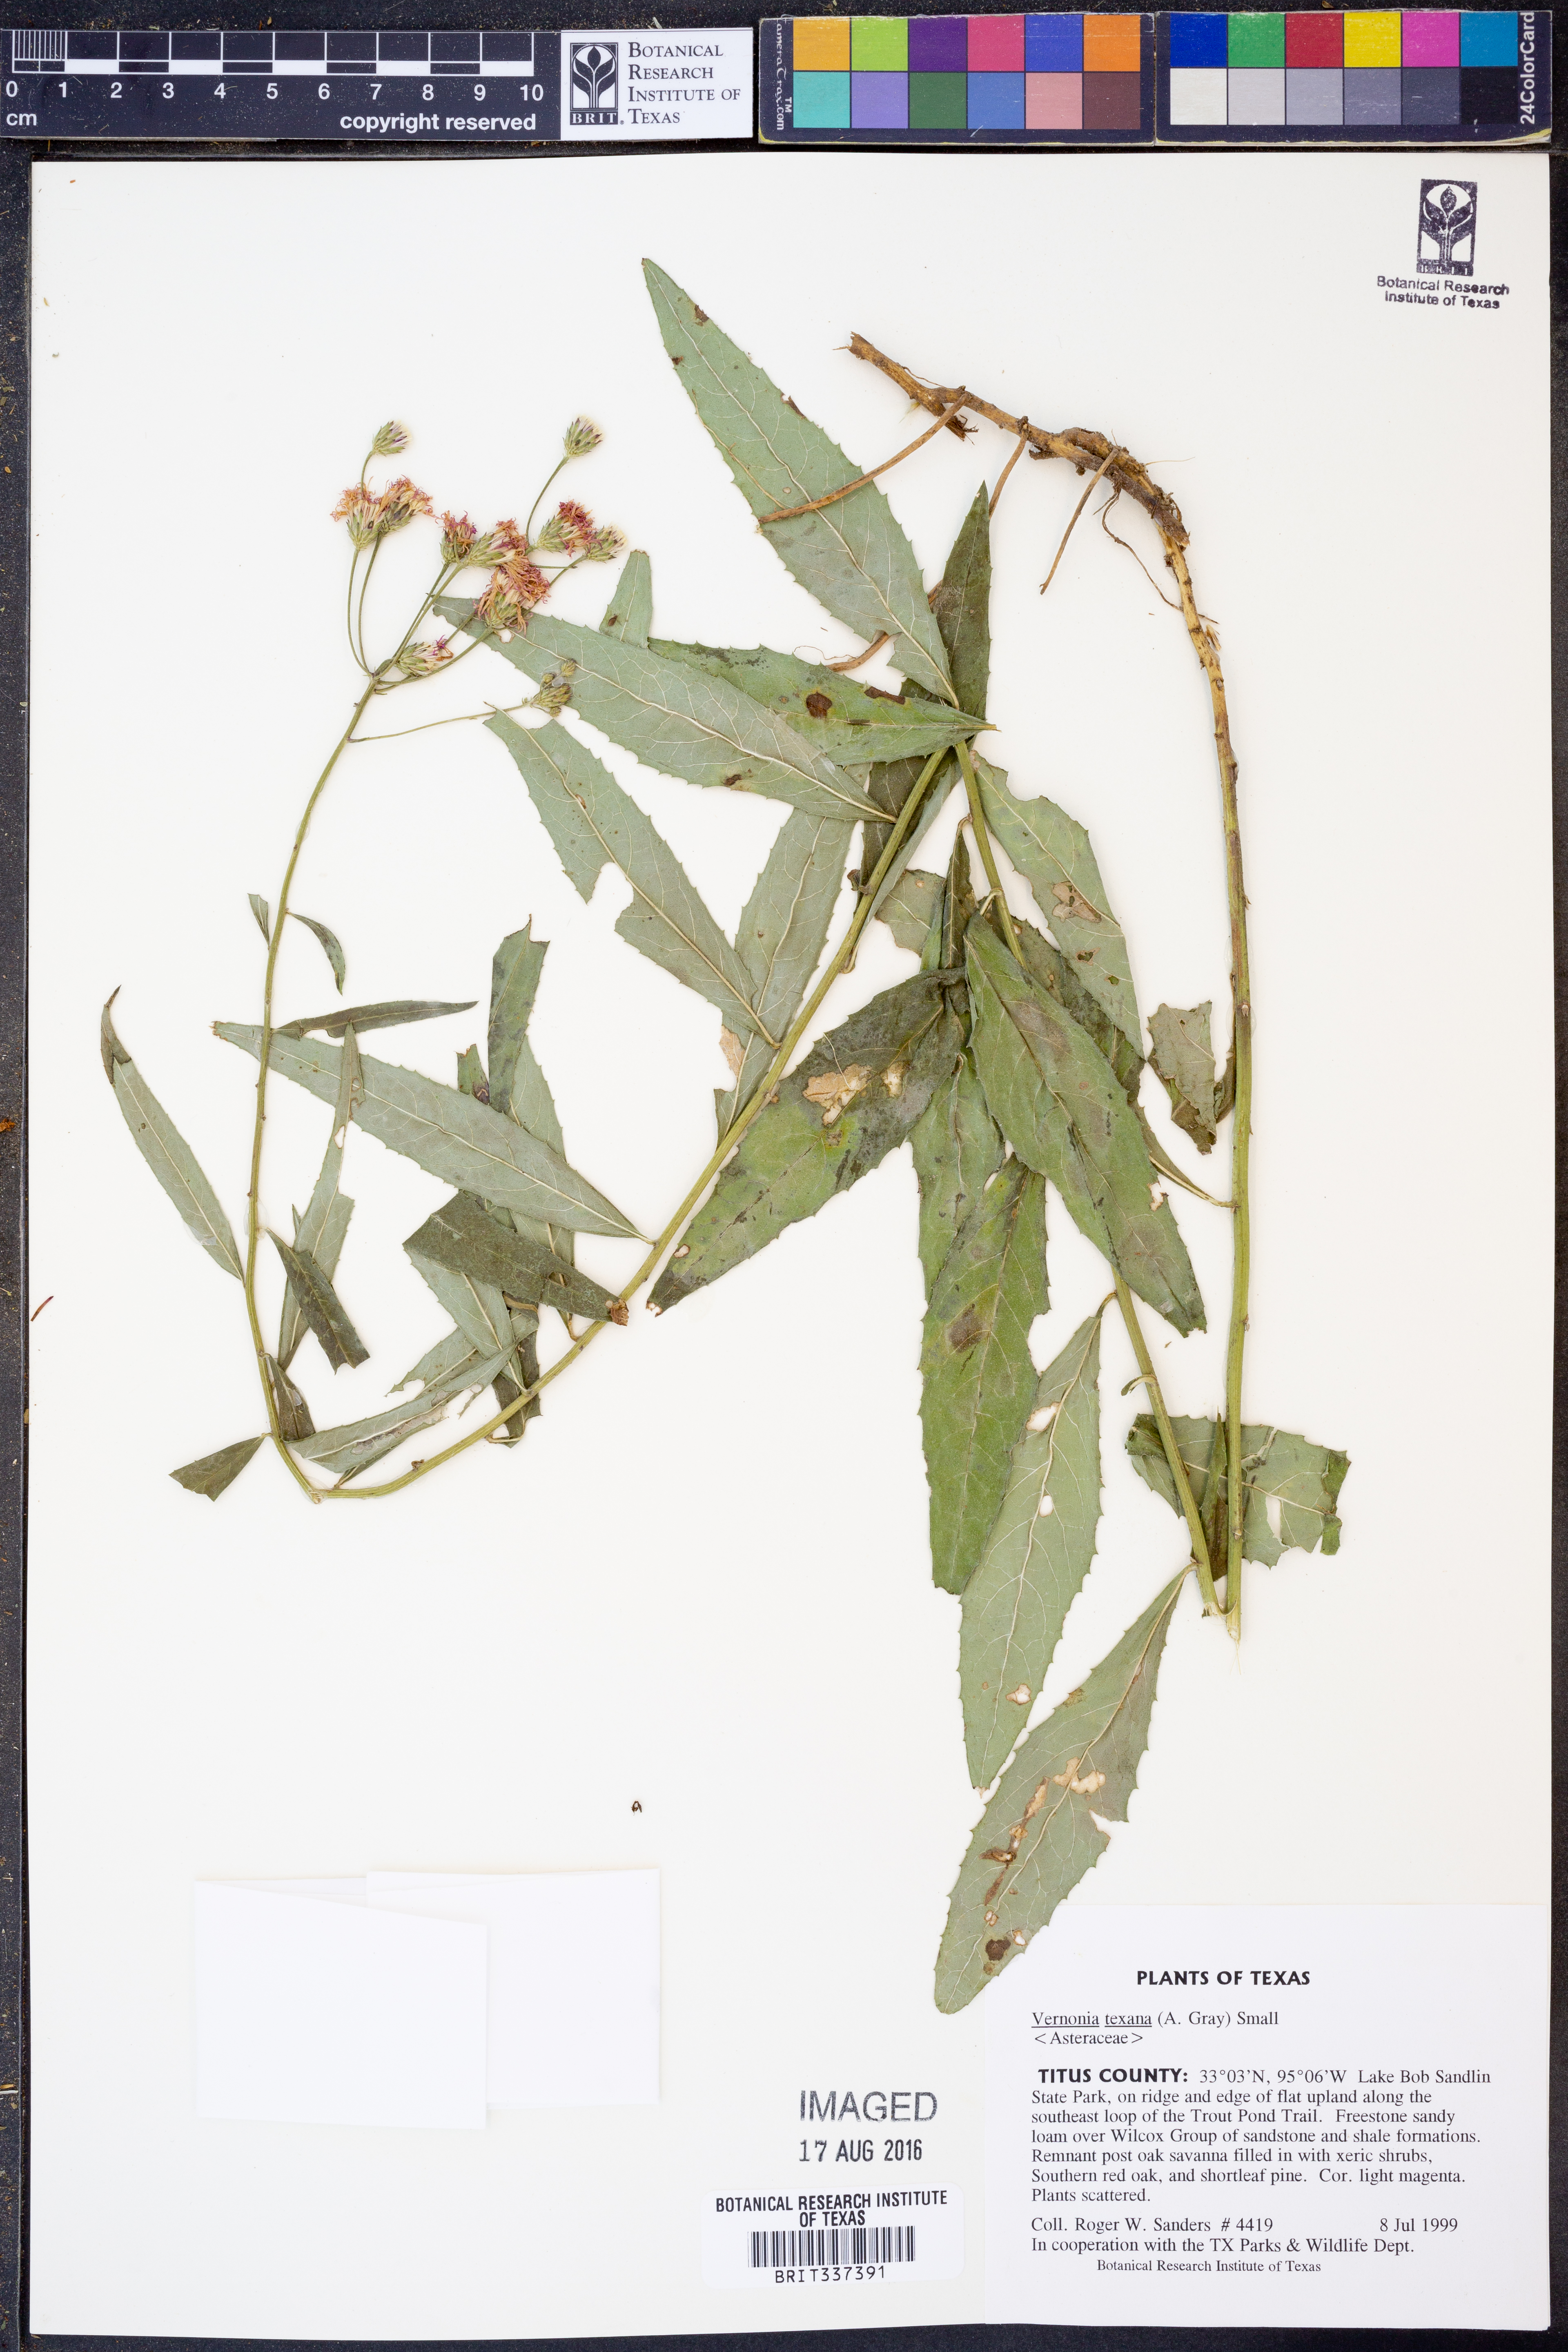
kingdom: Plantae
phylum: Tracheophyta
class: Magnoliopsida
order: Asterales
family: Asteraceae
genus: Vernonia
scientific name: Vernonia texana
